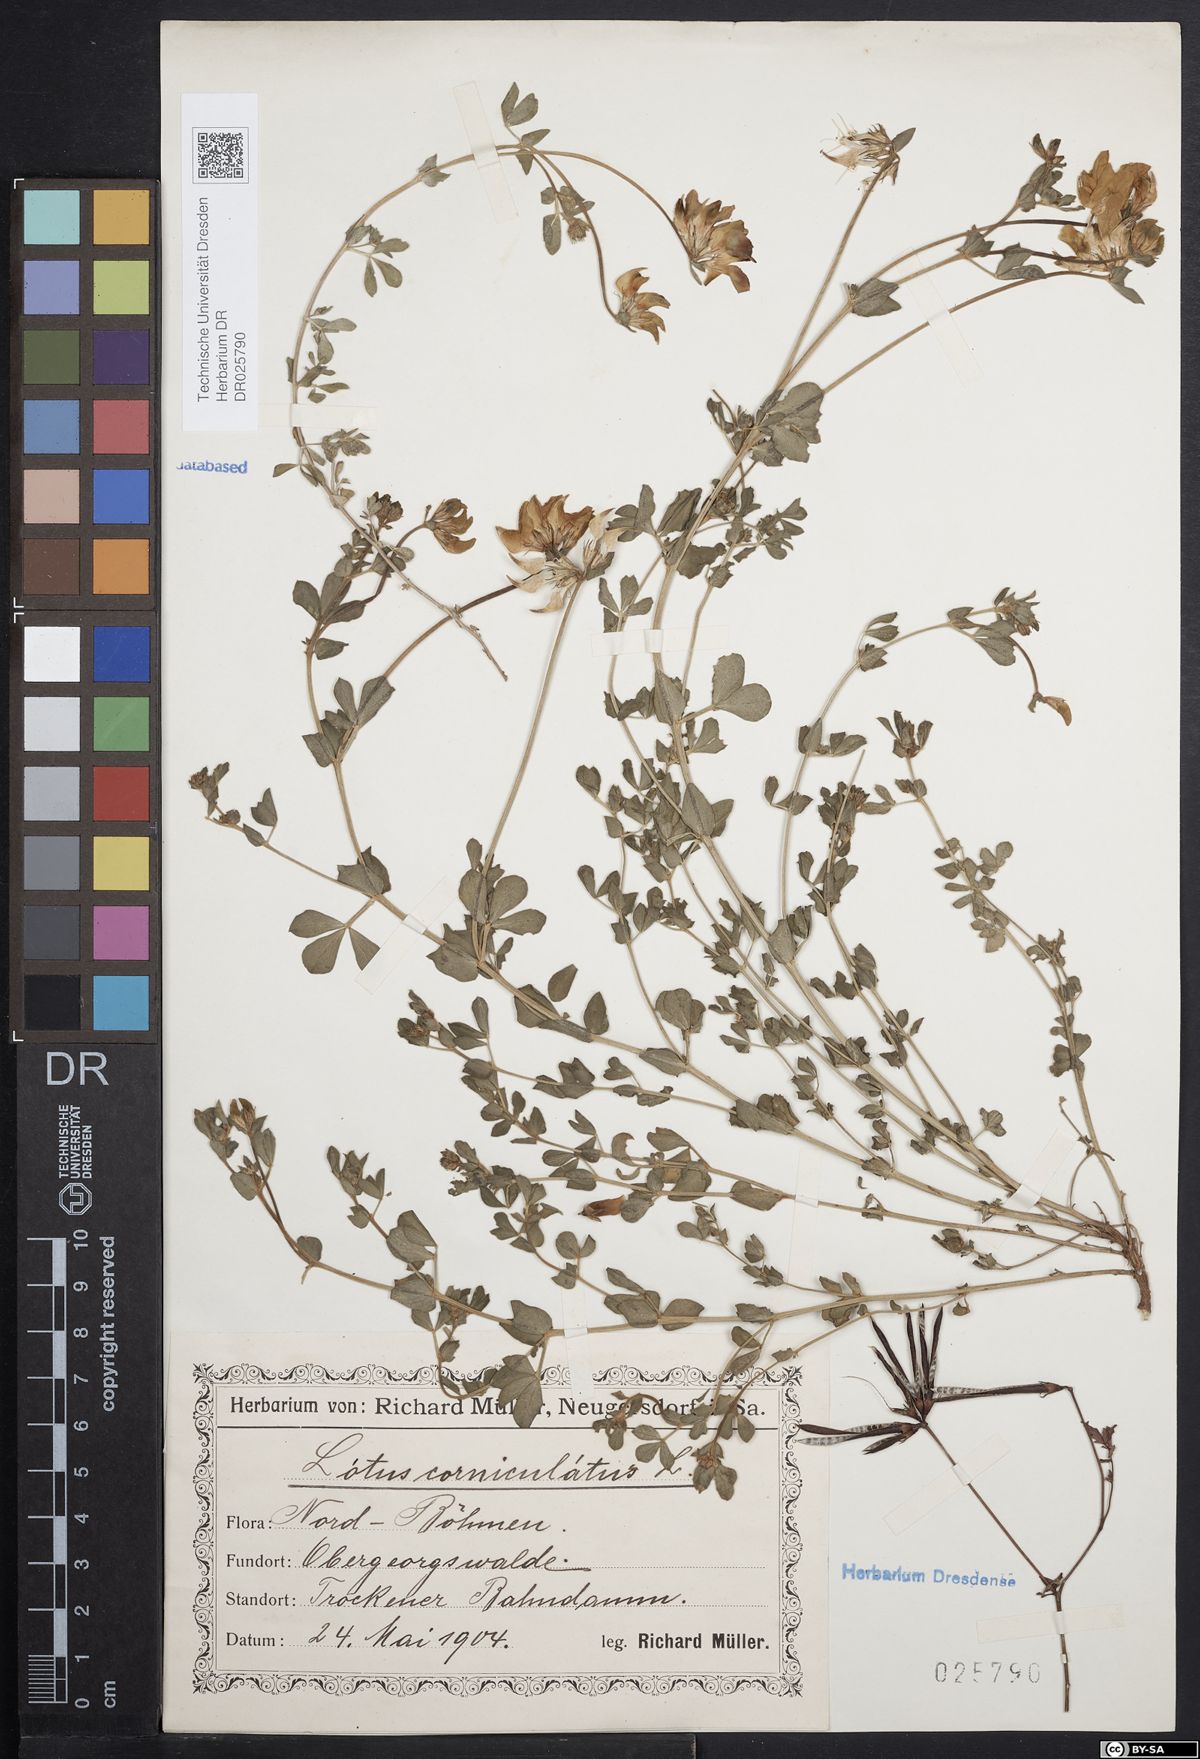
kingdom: Plantae
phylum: Tracheophyta
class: Magnoliopsida
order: Fabales
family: Fabaceae
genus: Lotus
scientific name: Lotus corniculatus
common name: Common bird's-foot-trefoil
